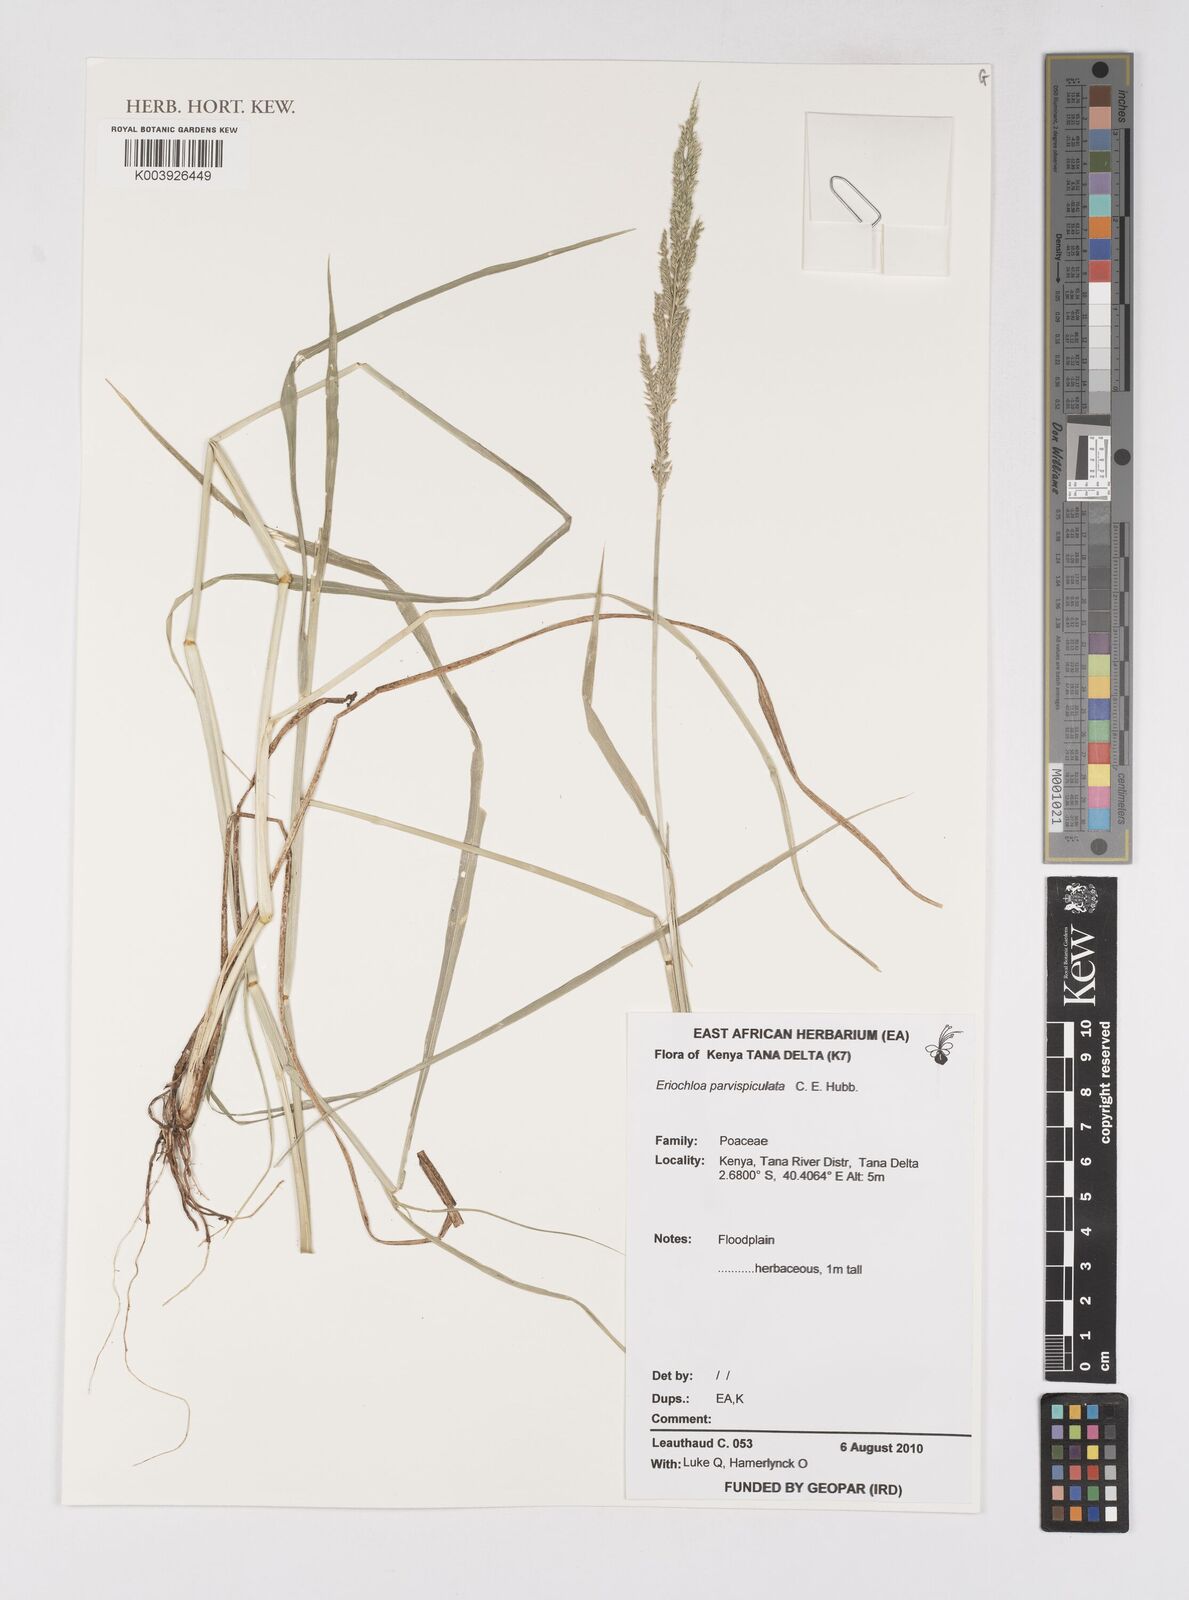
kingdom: Plantae
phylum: Tracheophyta
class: Liliopsida
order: Poales
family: Poaceae
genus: Eriochloa
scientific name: Eriochloa parvispiculata
